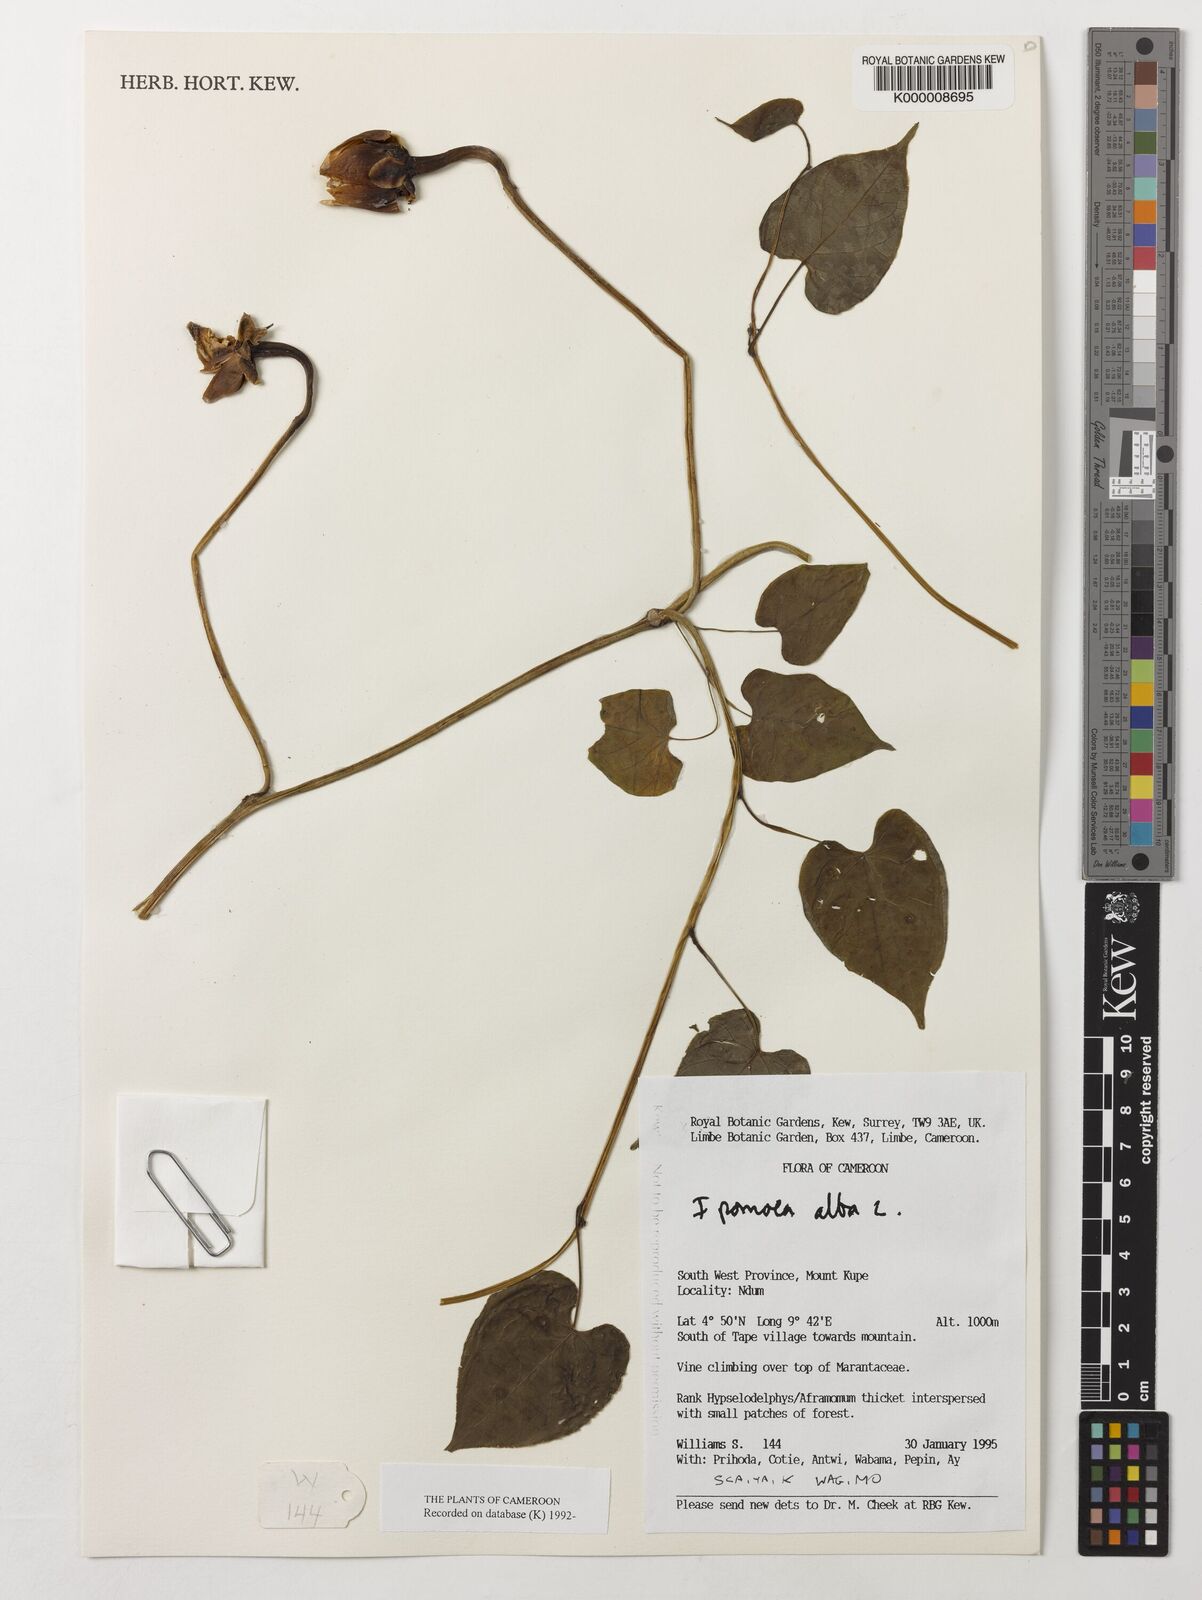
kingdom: Plantae
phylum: Tracheophyta
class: Magnoliopsida
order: Solanales
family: Convolvulaceae
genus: Ipomoea
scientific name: Ipomoea alba
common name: Moonflower
